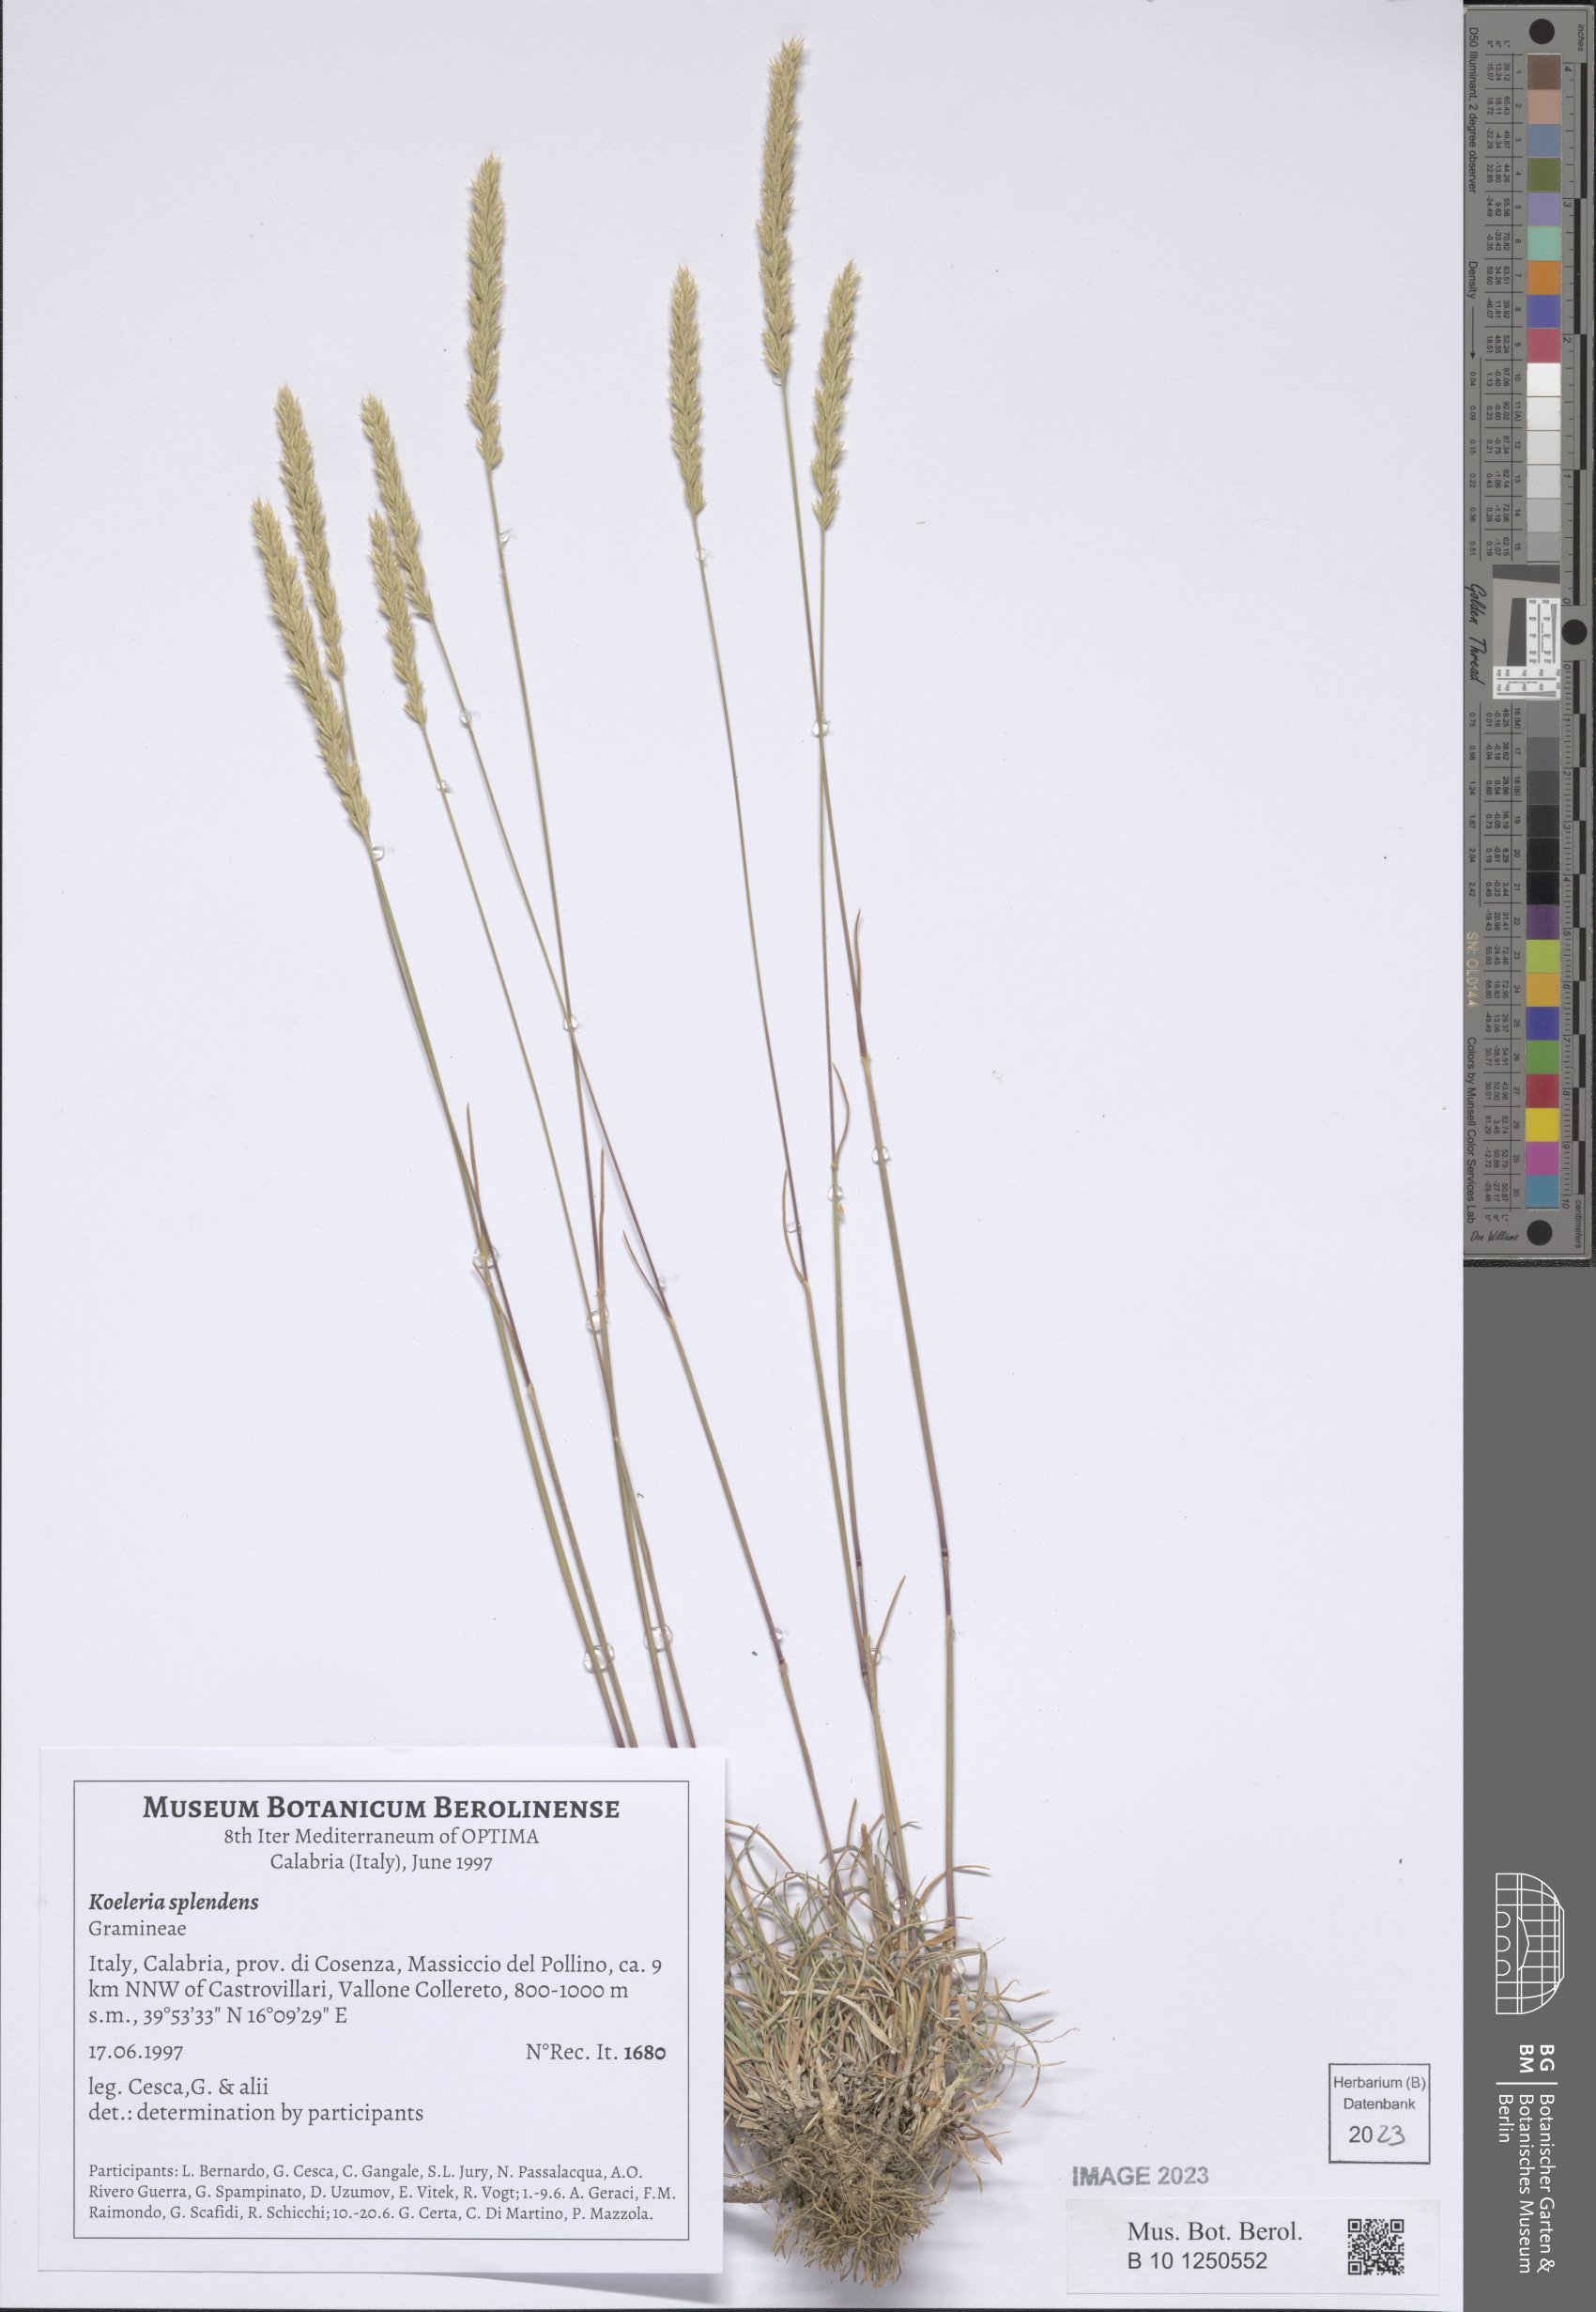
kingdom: Plantae
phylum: Tracheophyta
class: Liliopsida
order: Poales
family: Poaceae
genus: Koeleria
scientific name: Koeleria splendens
